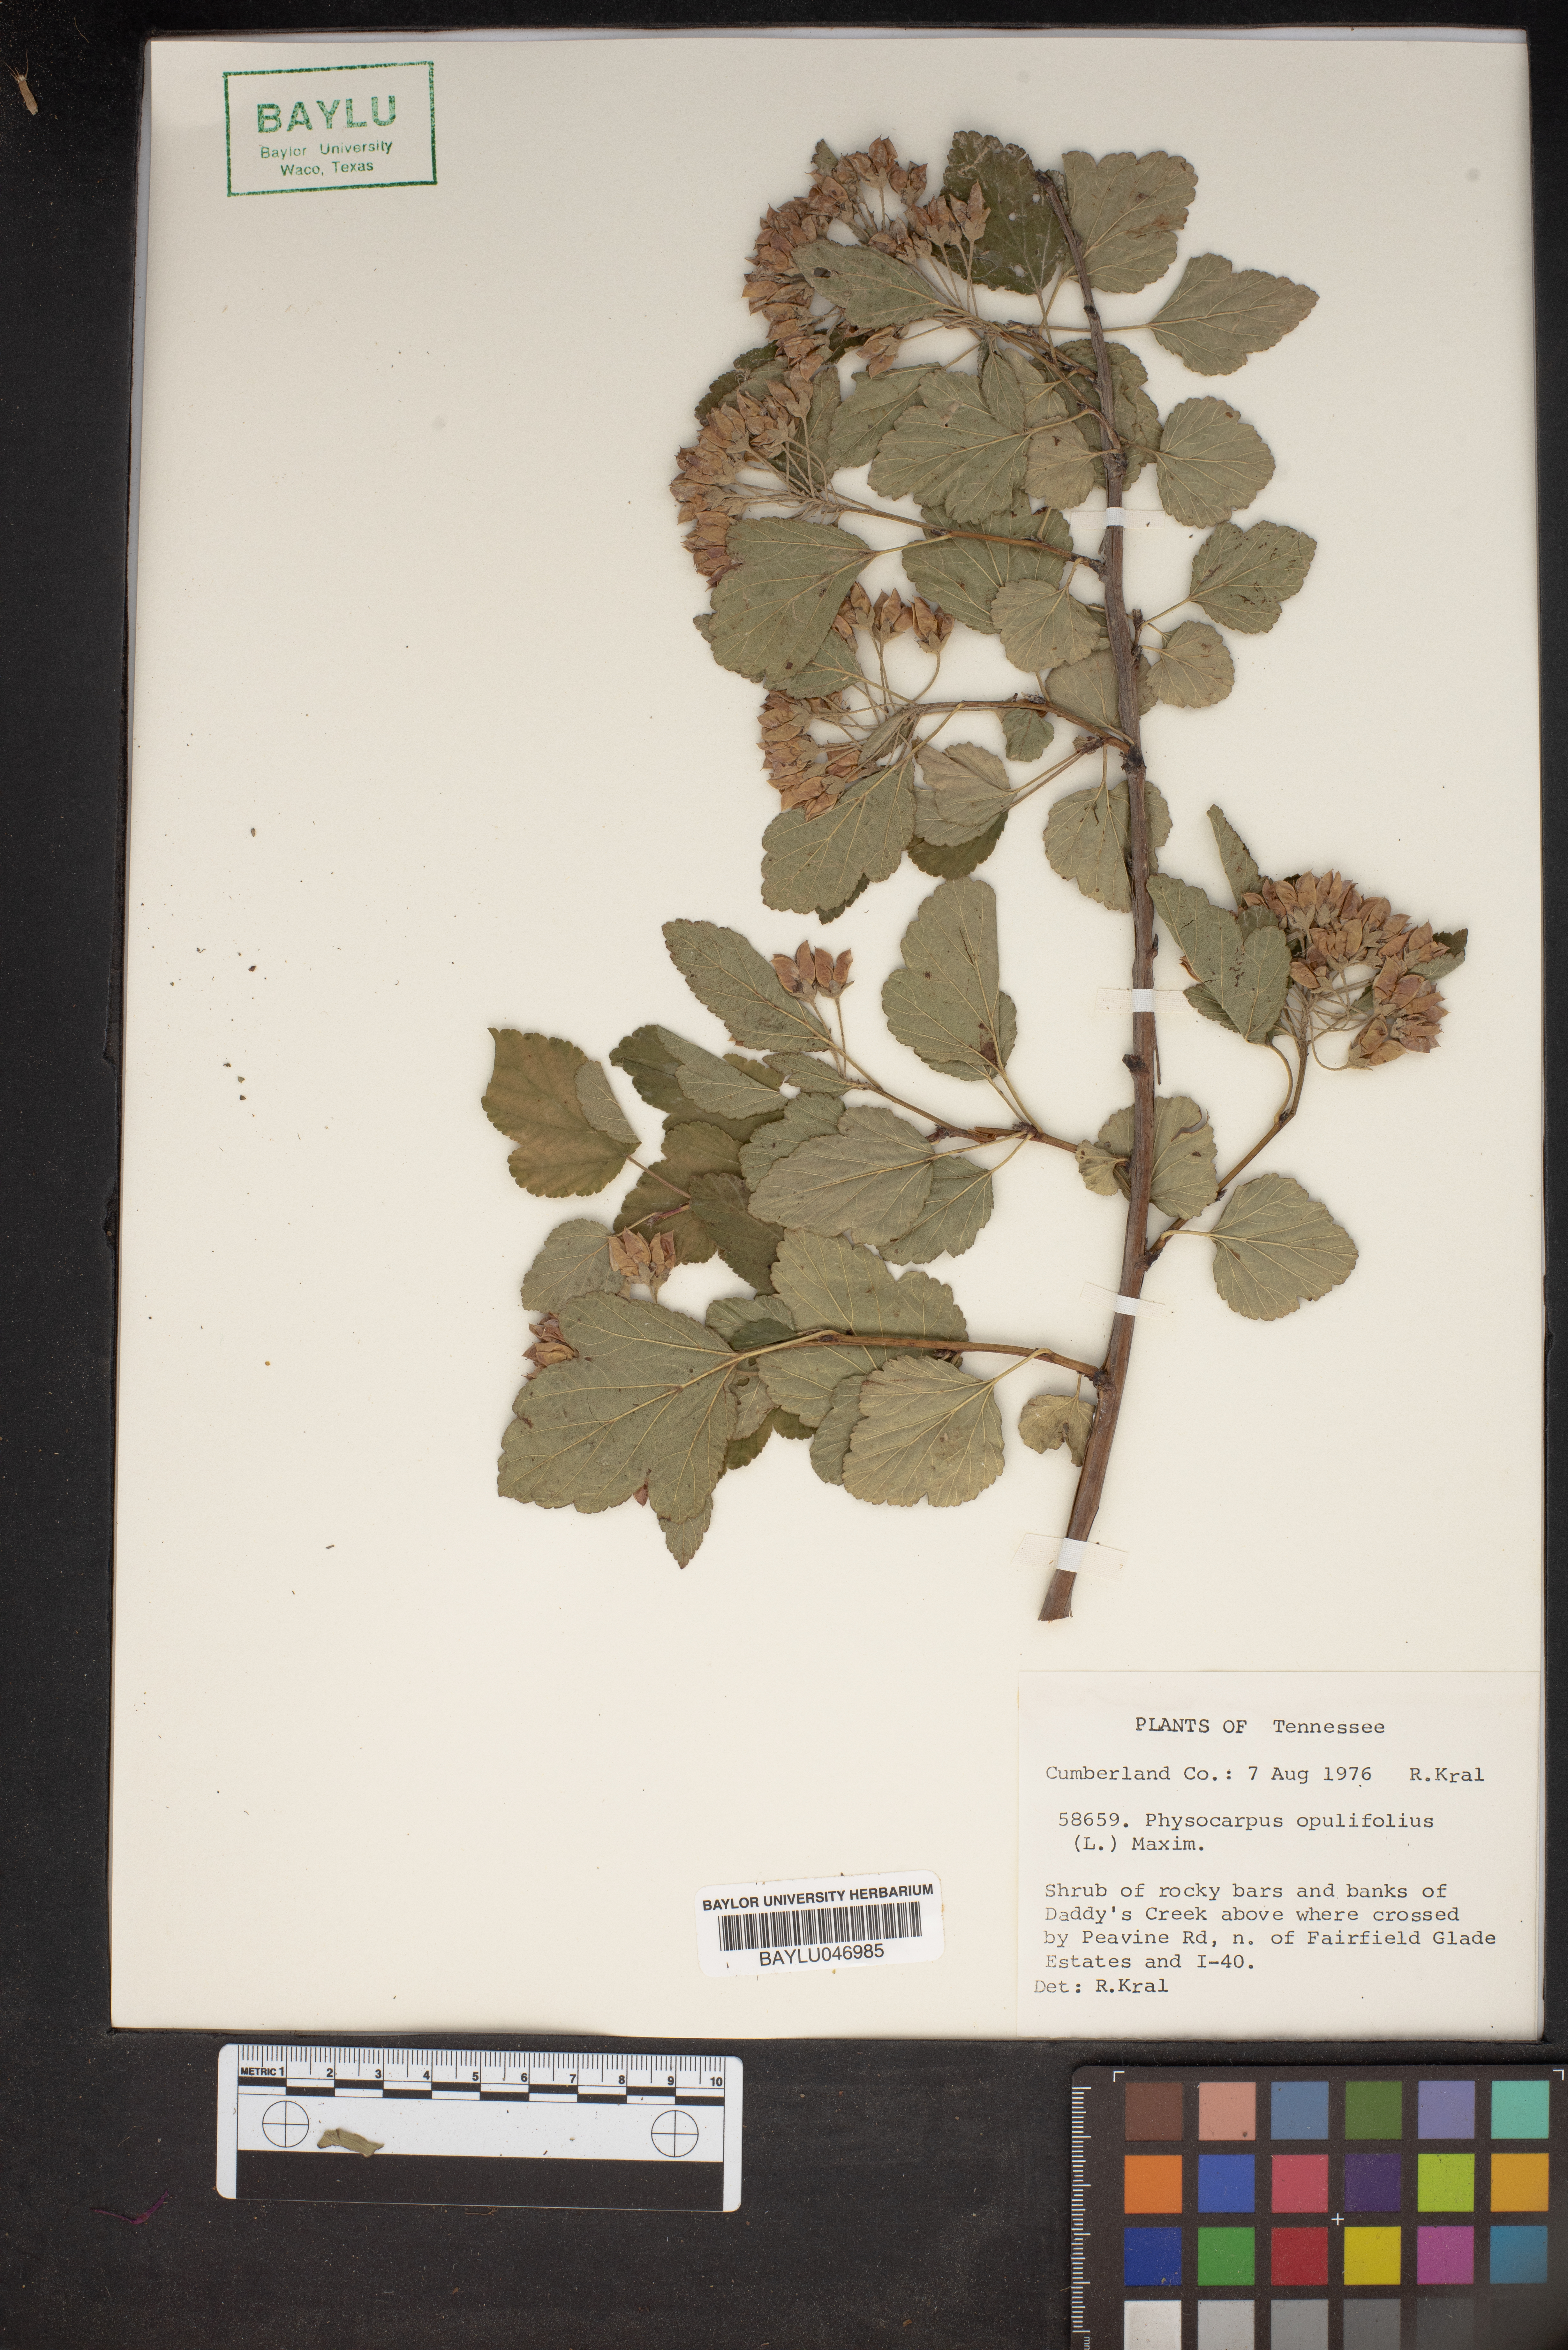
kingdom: Plantae
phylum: Tracheophyta
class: Magnoliopsida
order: Rosales
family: Rosaceae
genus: Physocarpus
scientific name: Physocarpus opulifolius
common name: Ninebark
